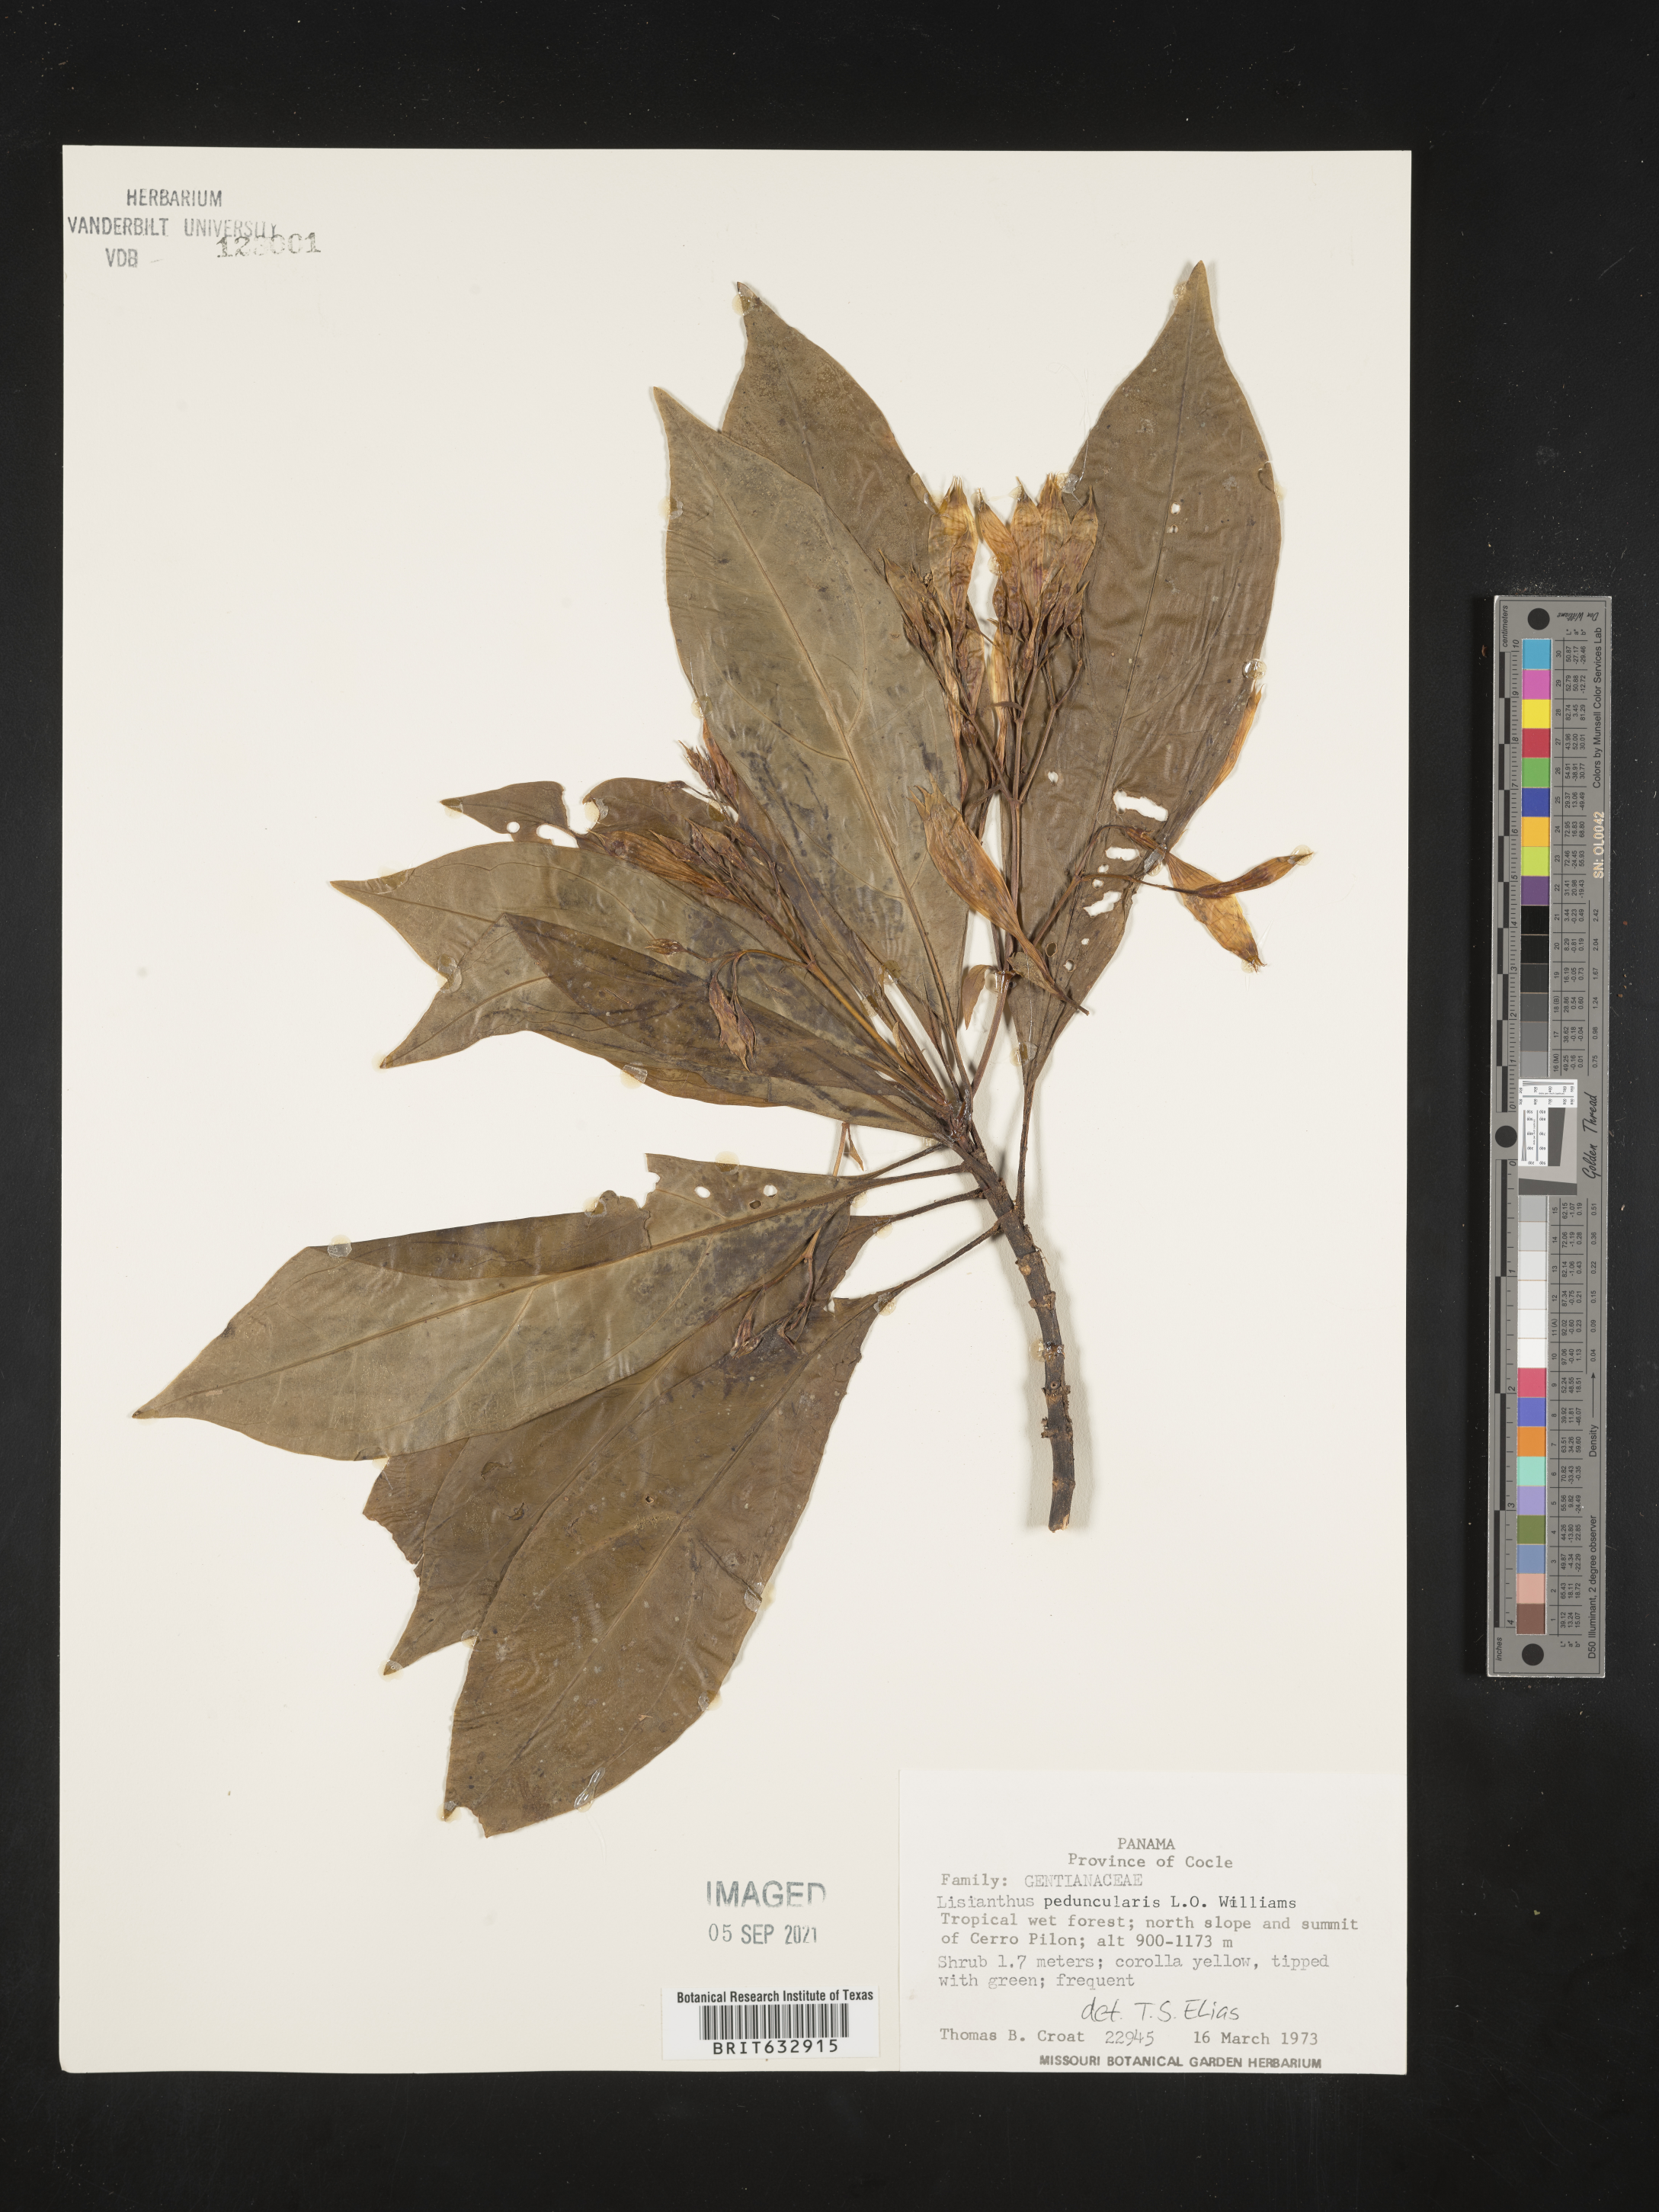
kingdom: Plantae
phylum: Tracheophyta
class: Magnoliopsida
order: Gentianales
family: Gentianaceae
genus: Lisianthus
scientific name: Lisianthus
